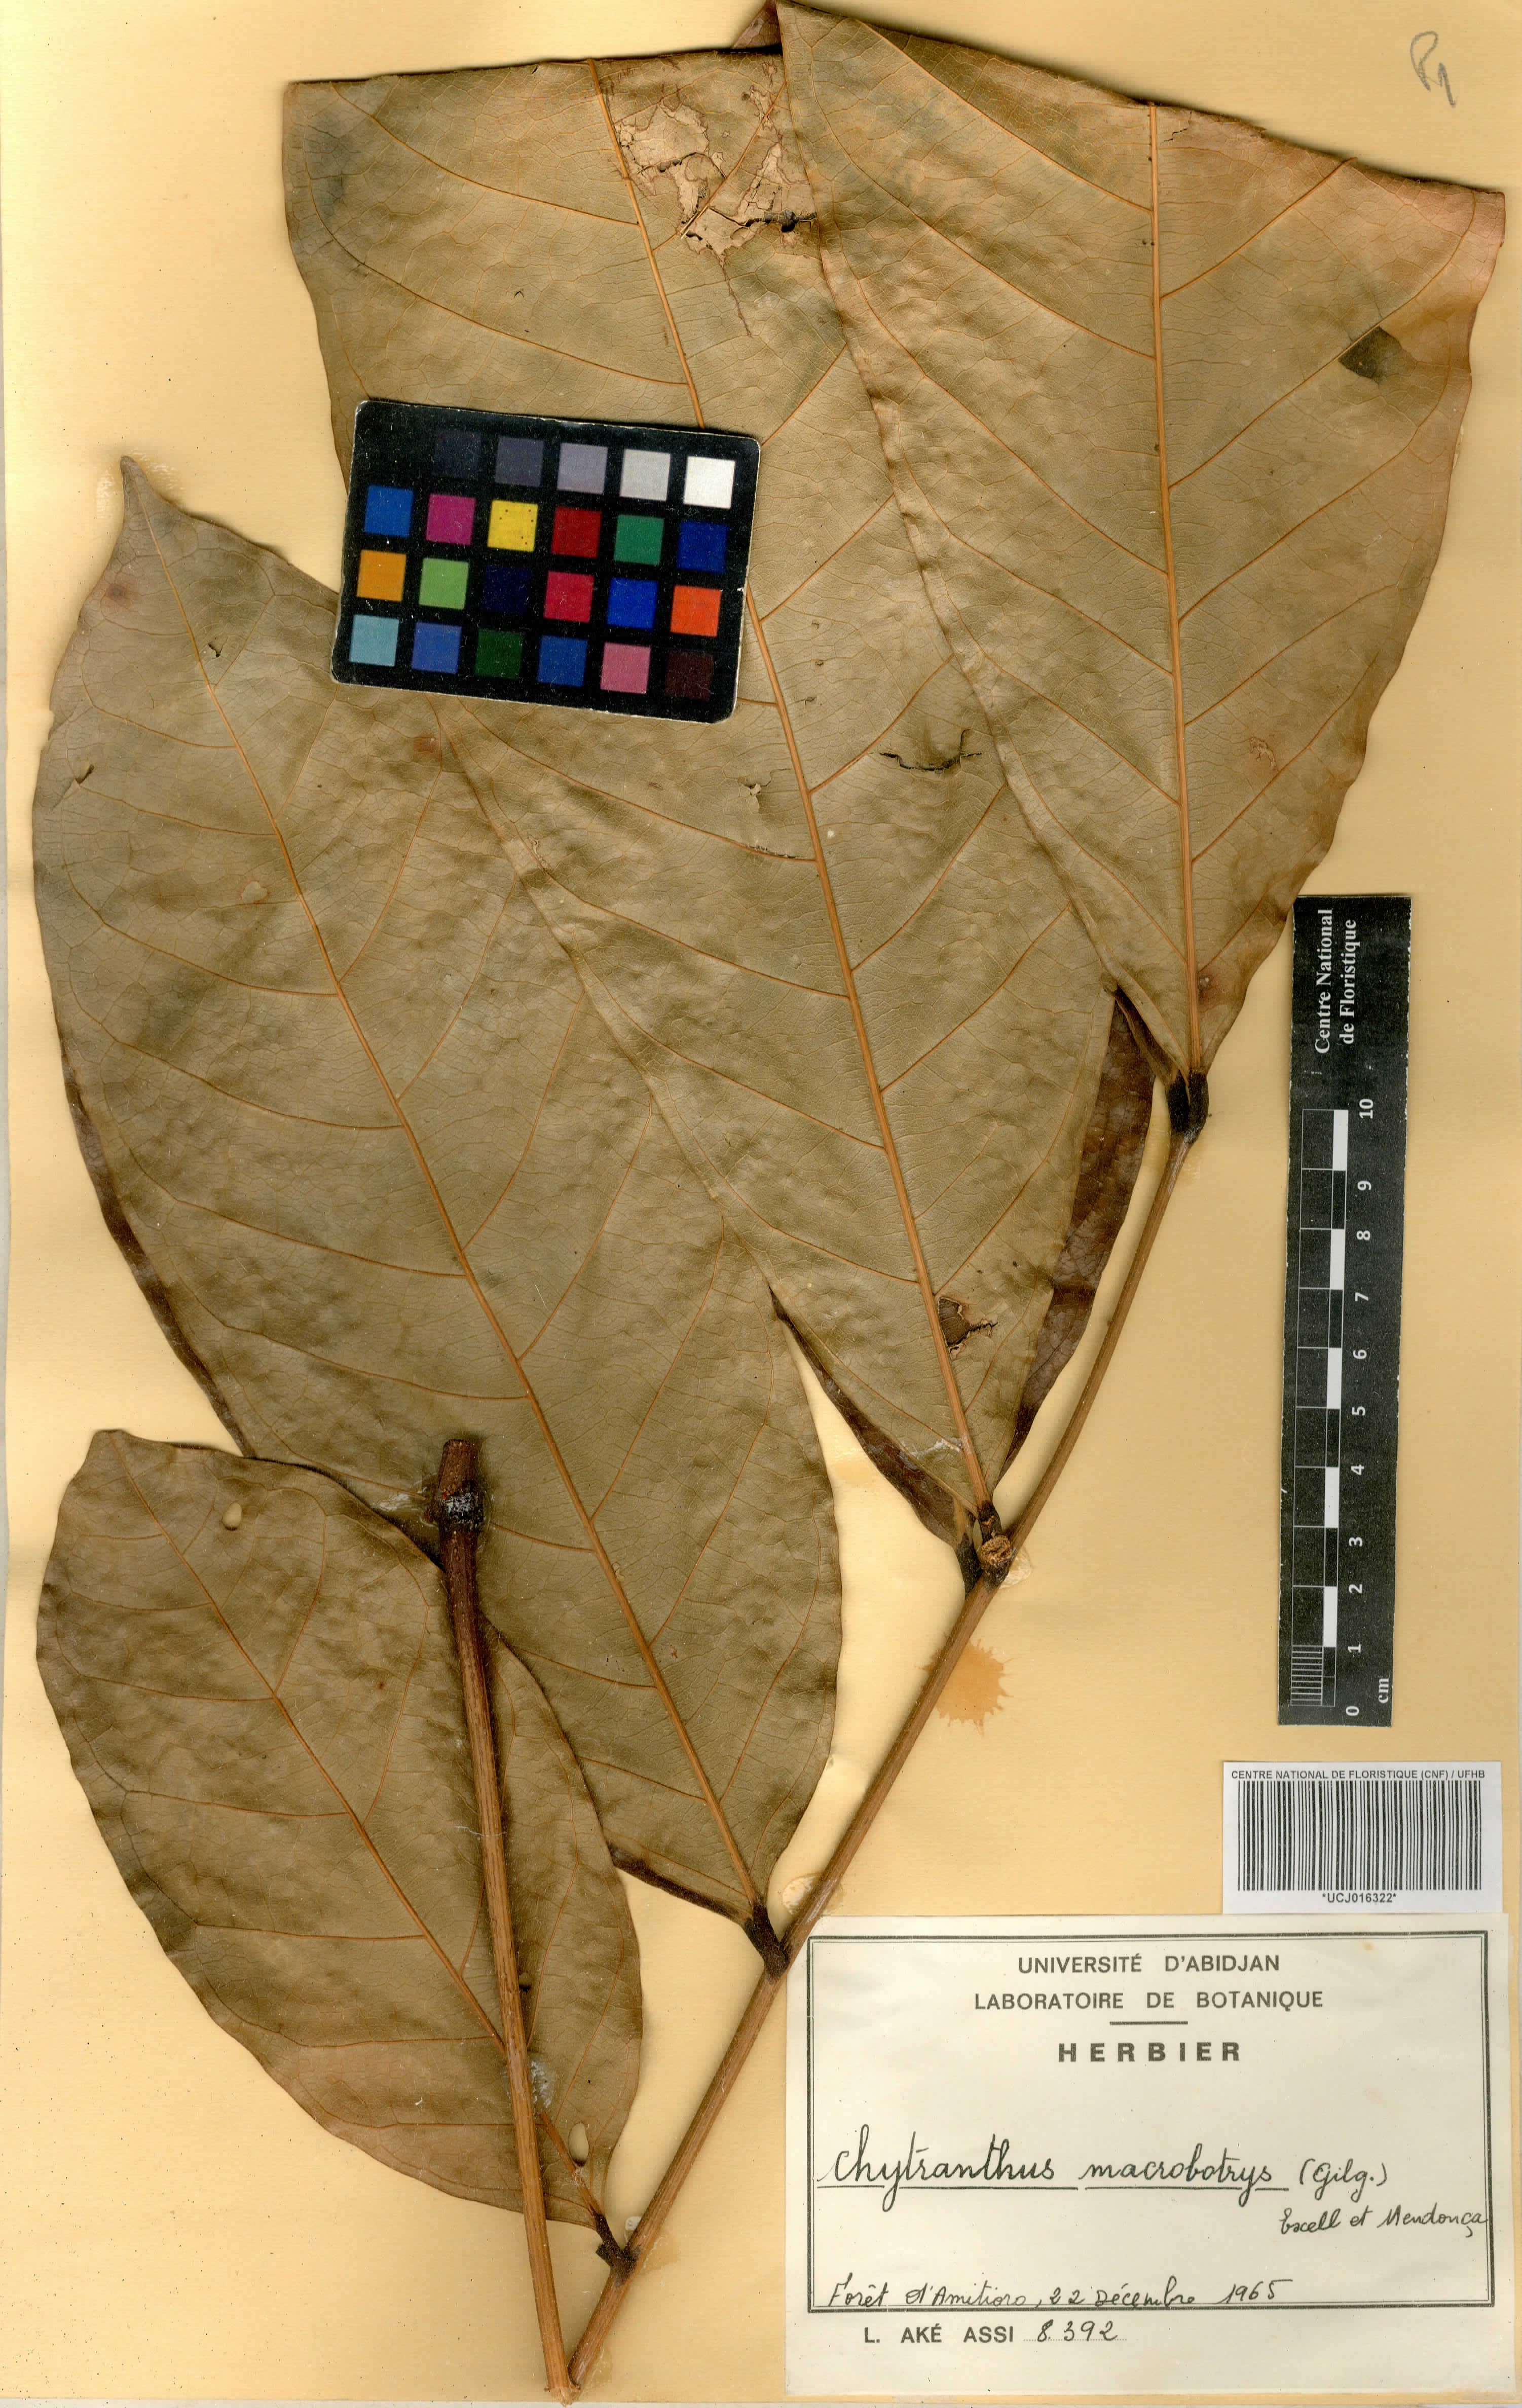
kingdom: Plantae
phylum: Tracheophyta
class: Magnoliopsida
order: Sapindales
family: Sapindaceae
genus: Chytranthus
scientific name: Chytranthus macrobotrys
